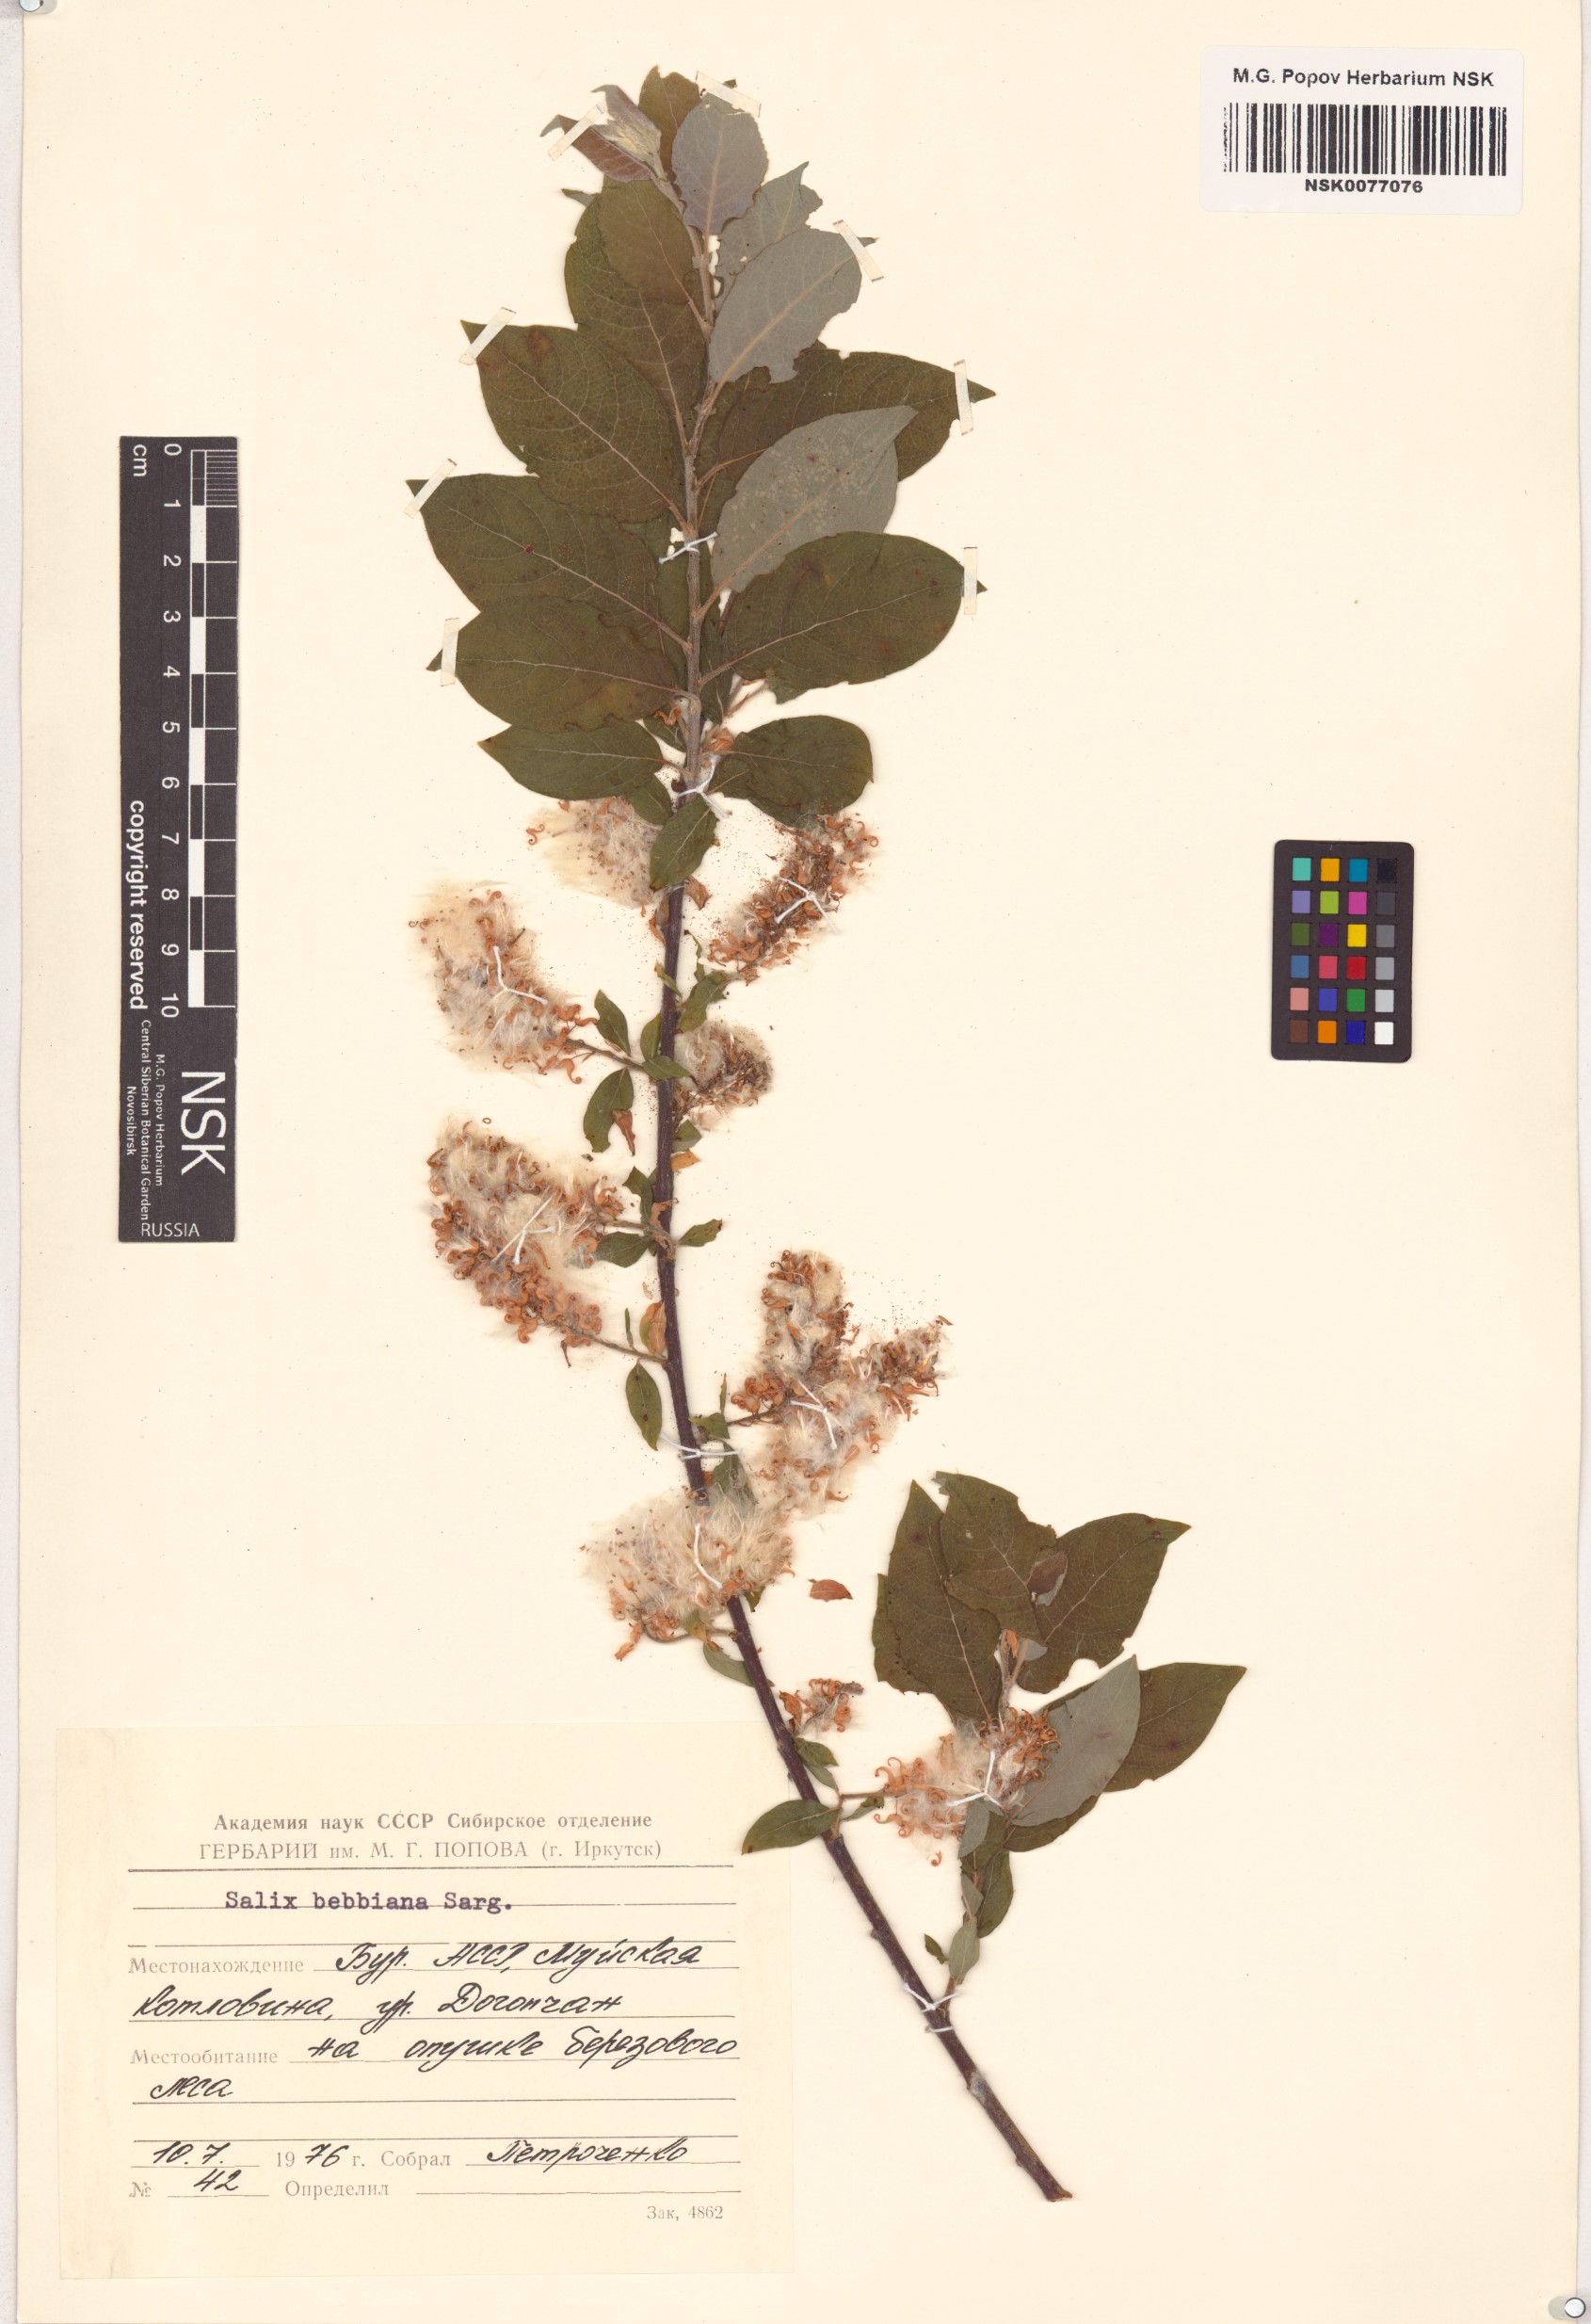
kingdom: Plantae
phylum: Tracheophyta
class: Magnoliopsida
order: Malpighiales
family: Salicaceae
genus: Salix
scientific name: Salix bebbiana
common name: Bebb's willow
